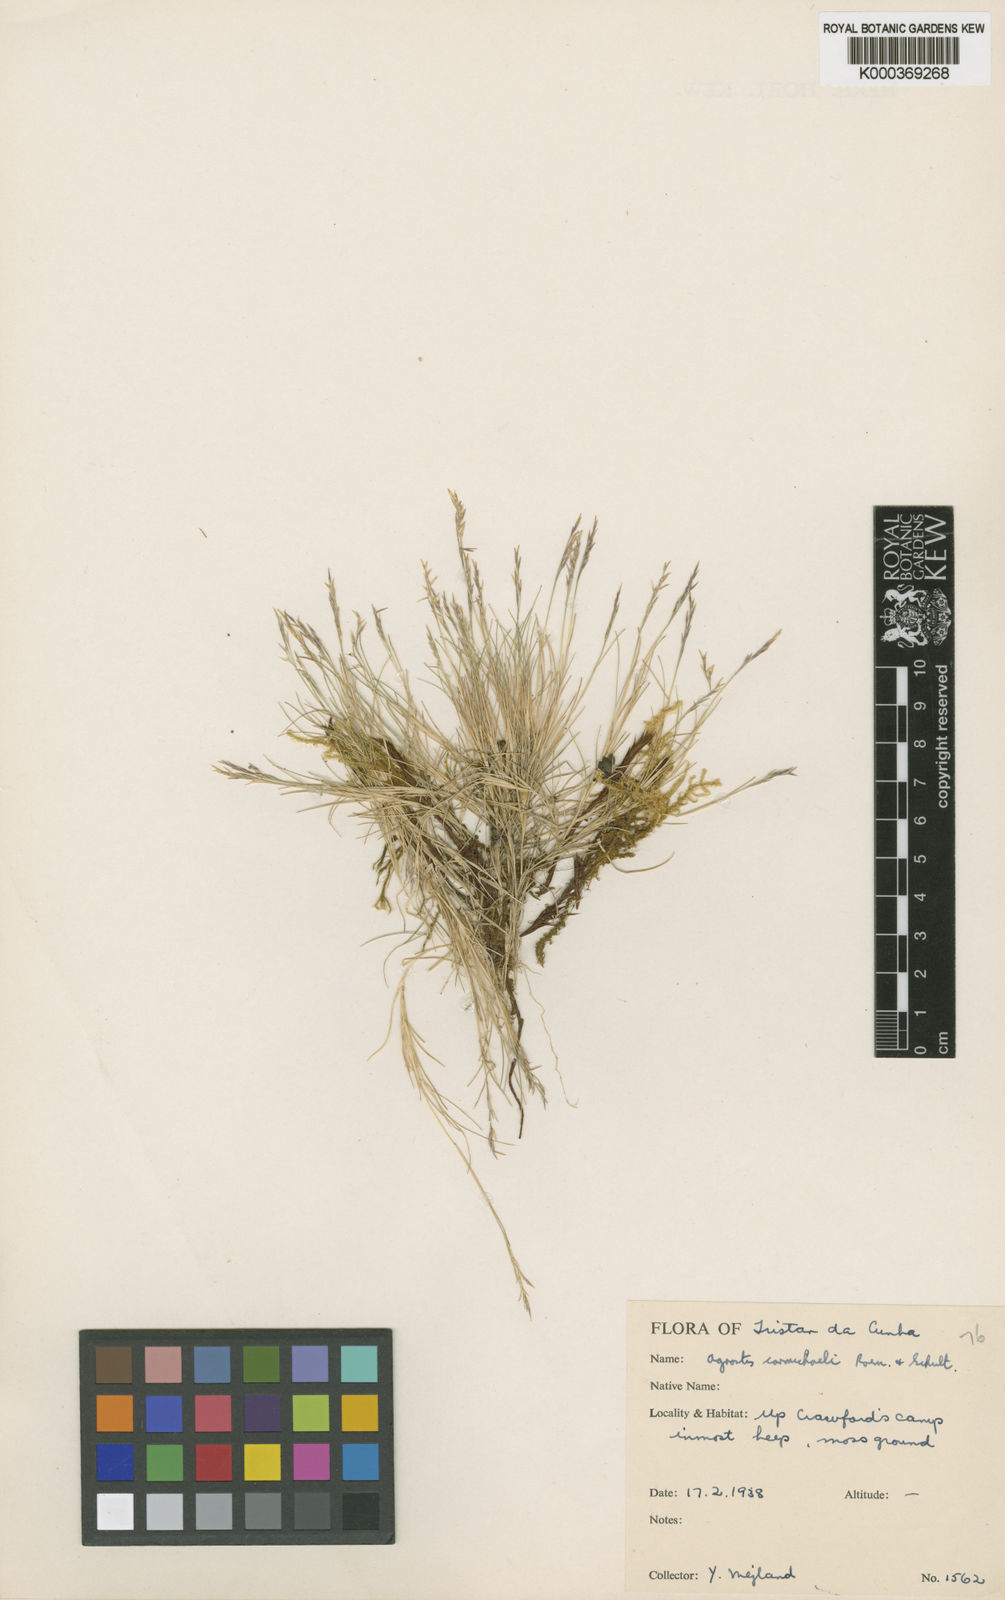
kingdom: Plantae
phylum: Tracheophyta
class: Liliopsida
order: Poales
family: Poaceae
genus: Agrostis
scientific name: Agrostis carmichaelii
